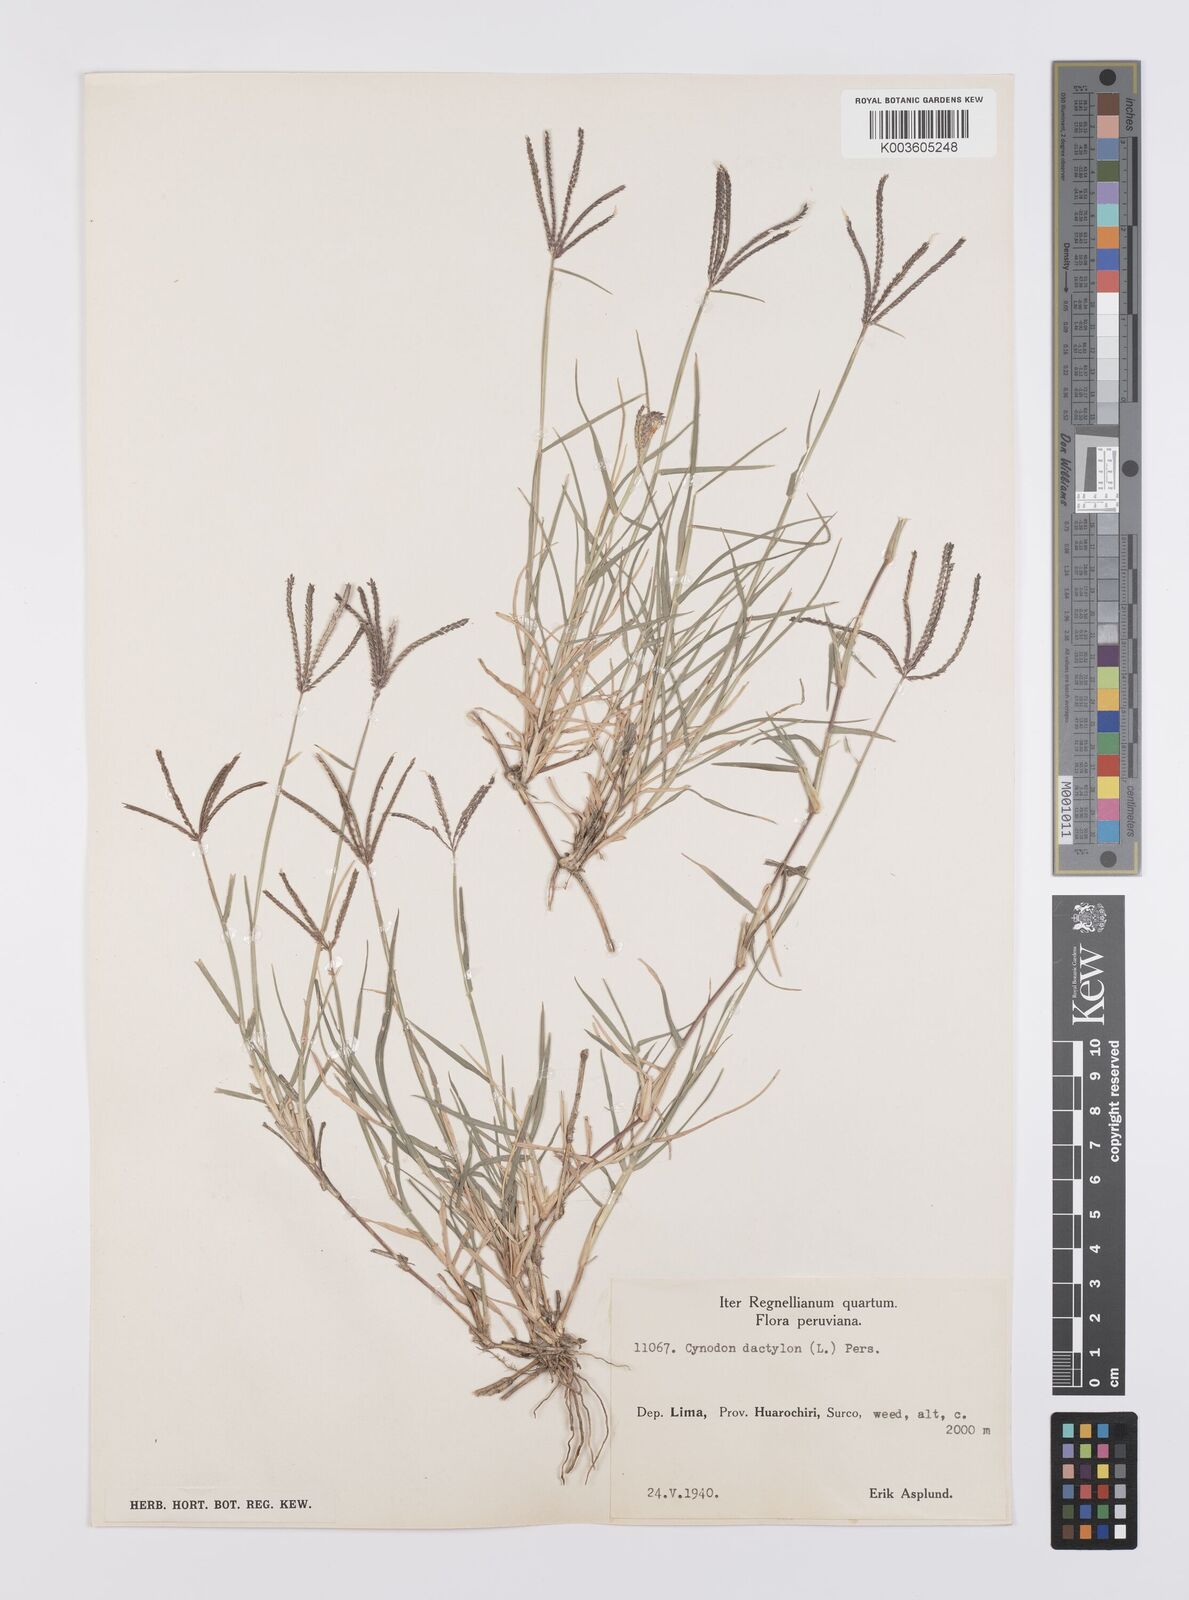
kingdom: Plantae
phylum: Tracheophyta
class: Liliopsida
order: Poales
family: Poaceae
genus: Cynodon
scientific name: Cynodon dactylon
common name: Bermuda grass
